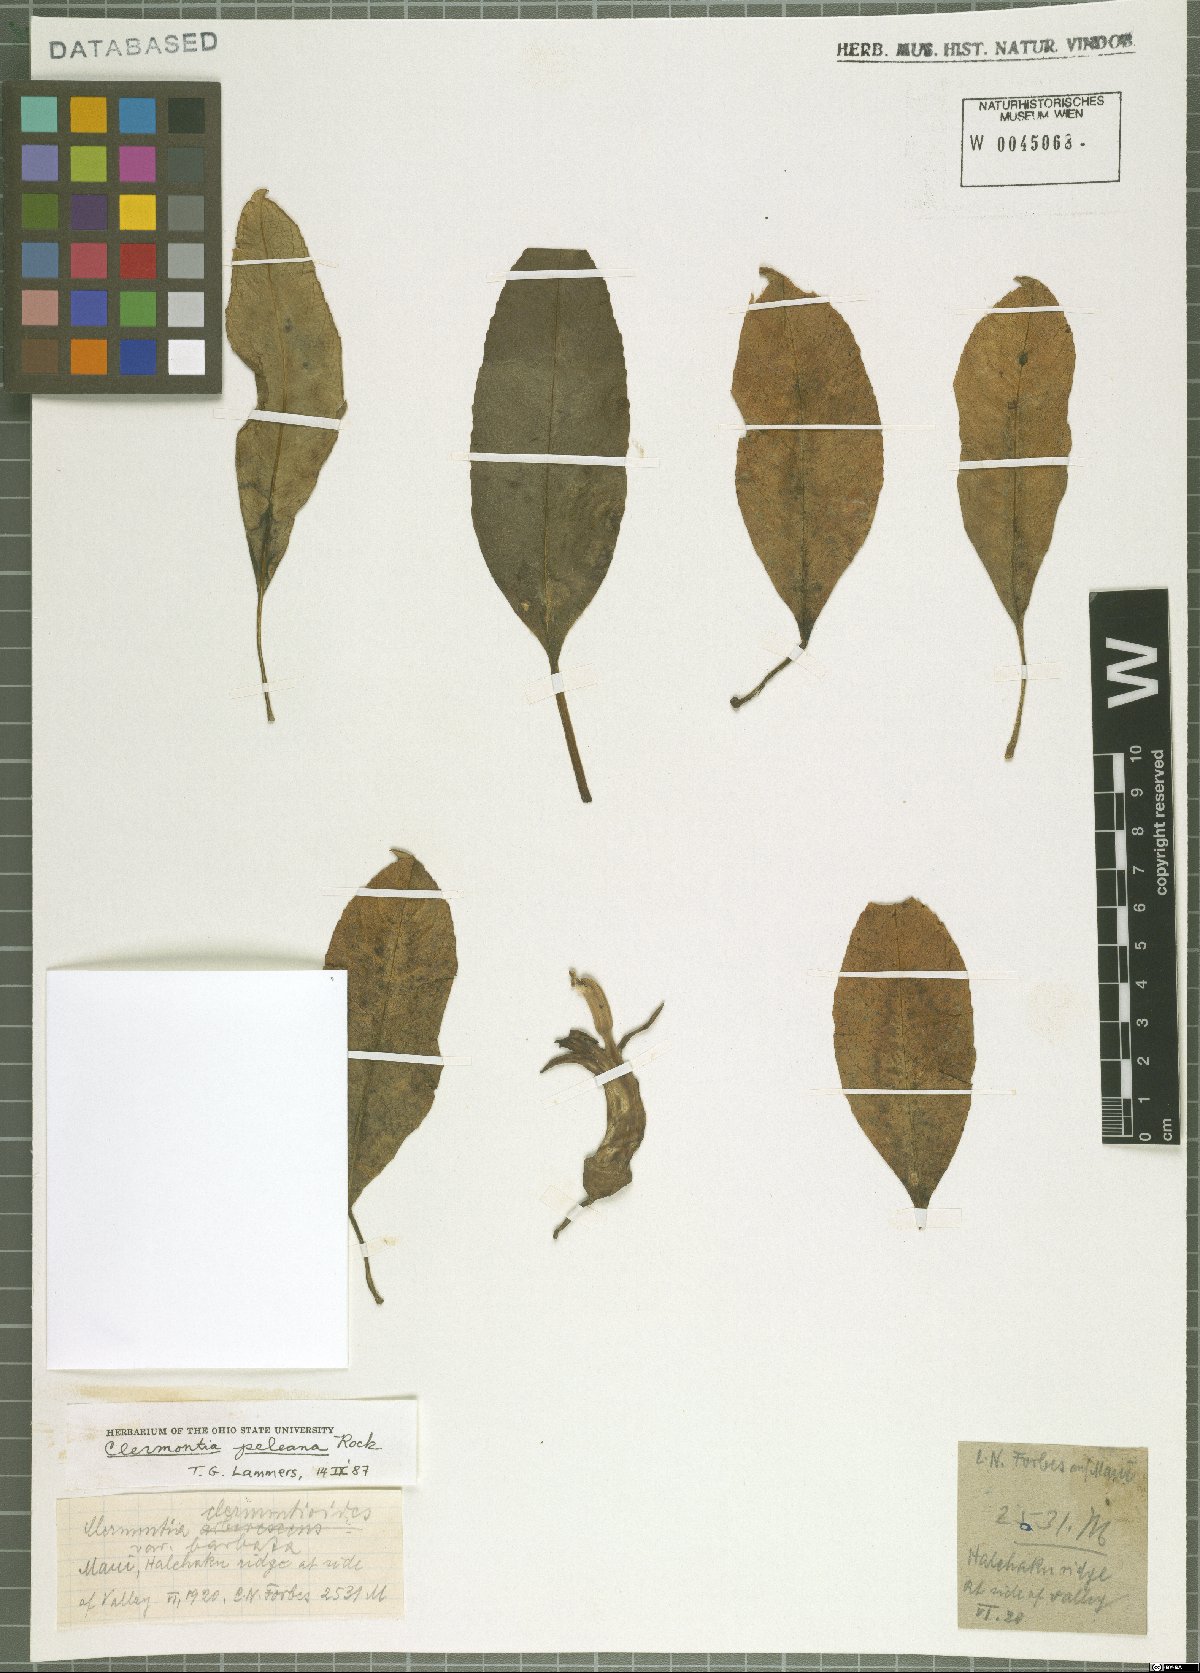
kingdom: Plantae
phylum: Tracheophyta
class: Magnoliopsida
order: Asterales
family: Campanulaceae
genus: Clermontia
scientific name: Clermontia peleana
